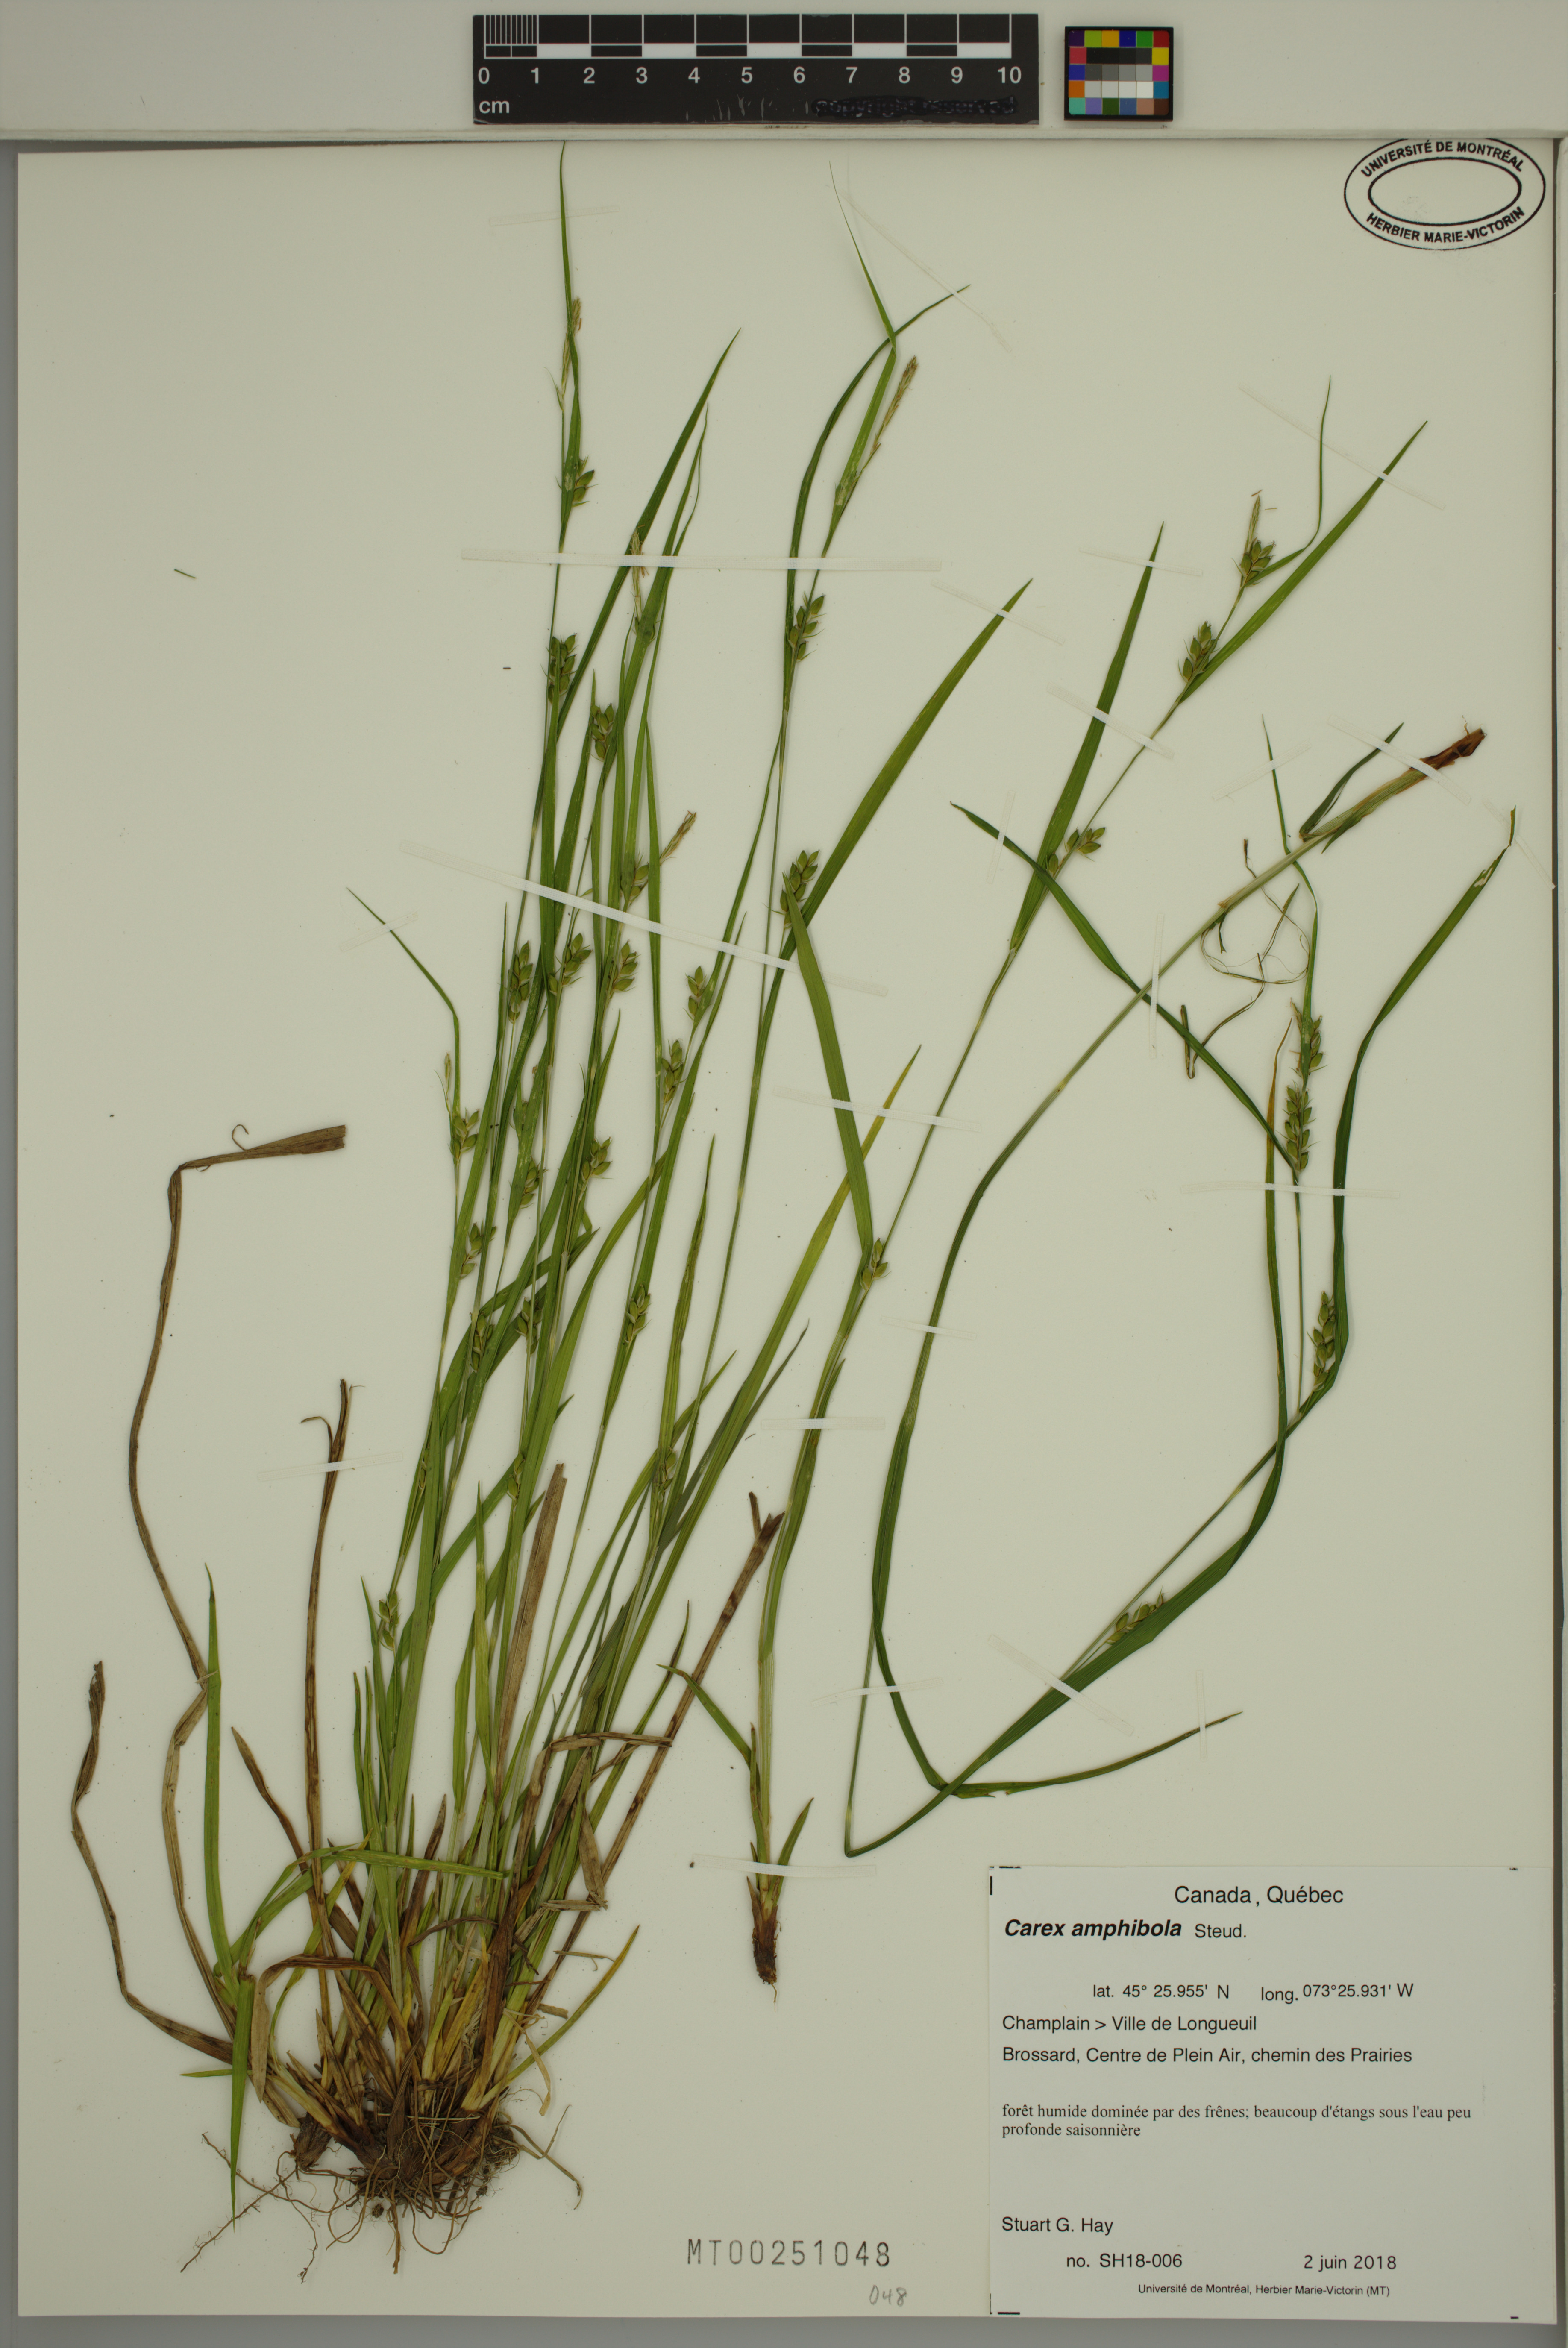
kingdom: Plantae
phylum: Tracheophyta
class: Liliopsida
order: Poales
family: Cyperaceae
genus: Carex
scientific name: Carex amphibola
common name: Amphibious sedge
